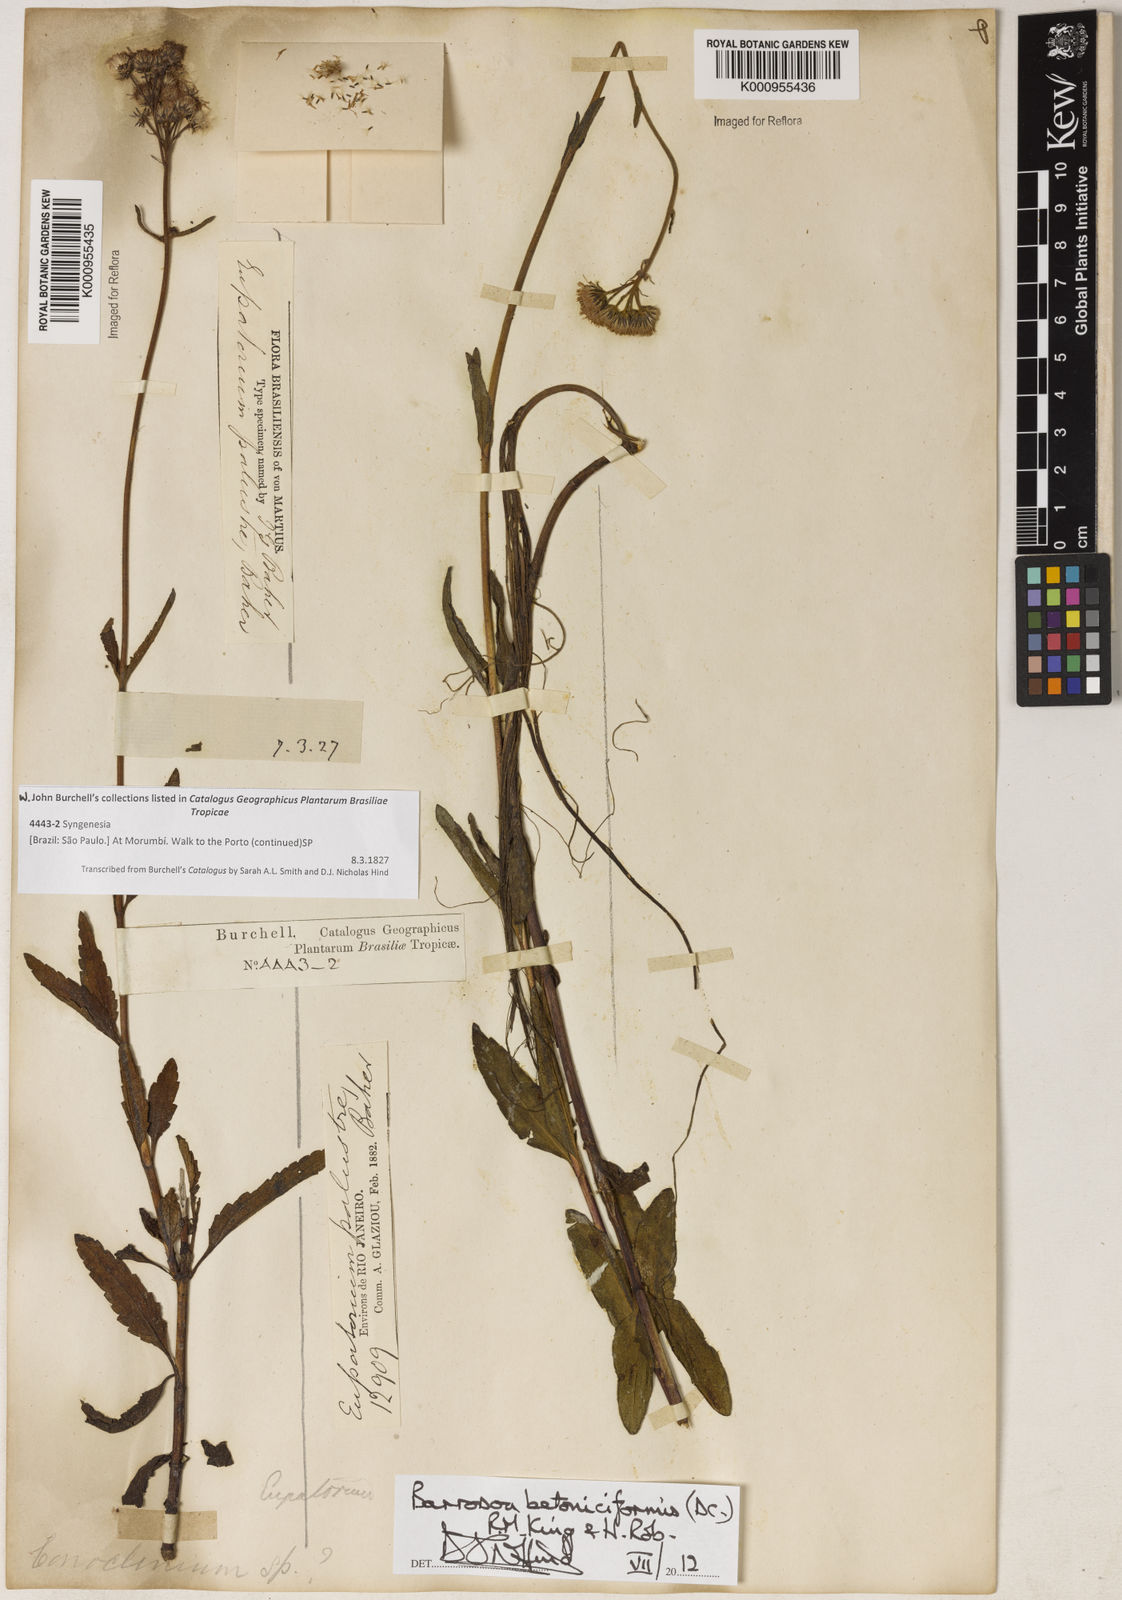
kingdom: Plantae
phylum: Tracheophyta
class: Magnoliopsida
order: Asterales
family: Asteraceae
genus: Barrosoa
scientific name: Barrosoa betoniciformis
